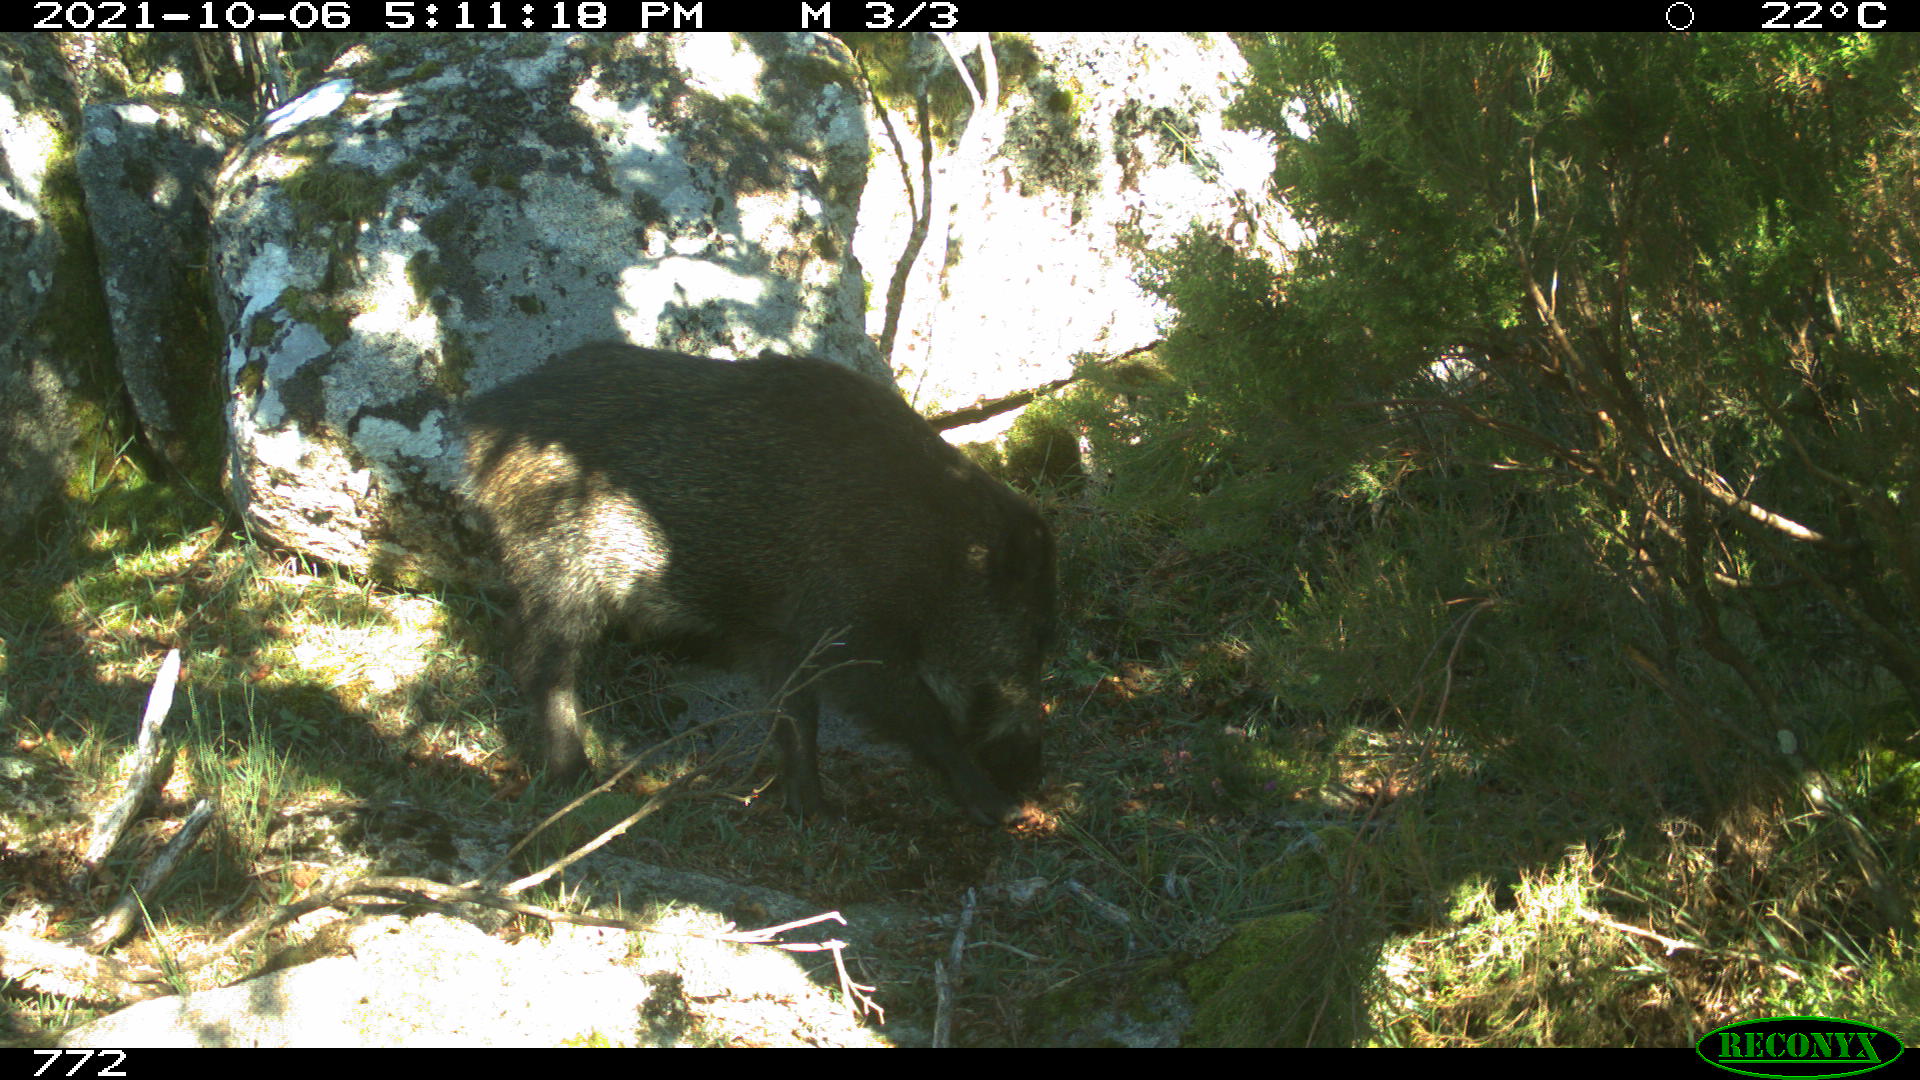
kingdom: Animalia
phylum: Chordata
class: Mammalia
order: Artiodactyla
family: Suidae
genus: Sus
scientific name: Sus scrofa
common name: Wild boar
